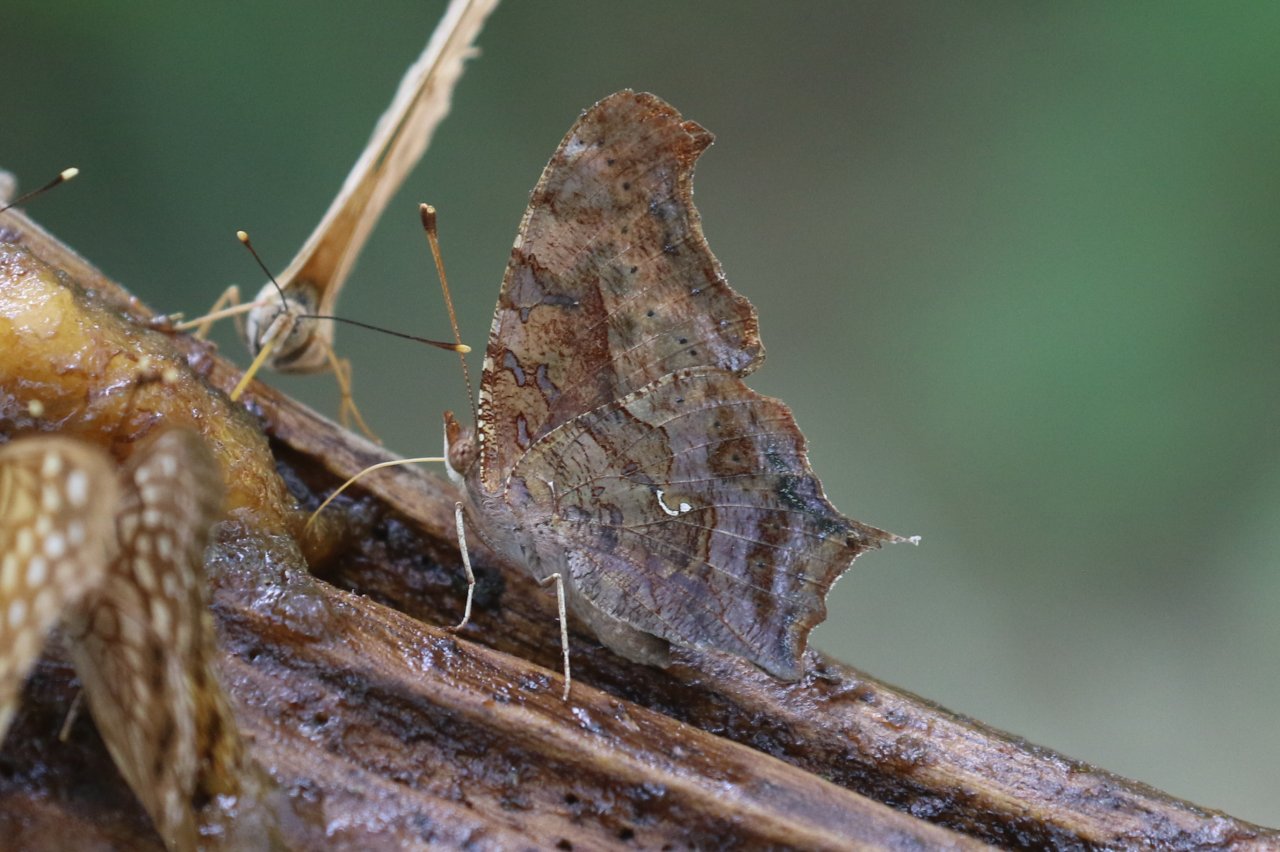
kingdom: Animalia
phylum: Arthropoda
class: Insecta
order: Lepidoptera
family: Nymphalidae
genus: Polygonia
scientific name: Polygonia interrogationis
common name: Question Mark
